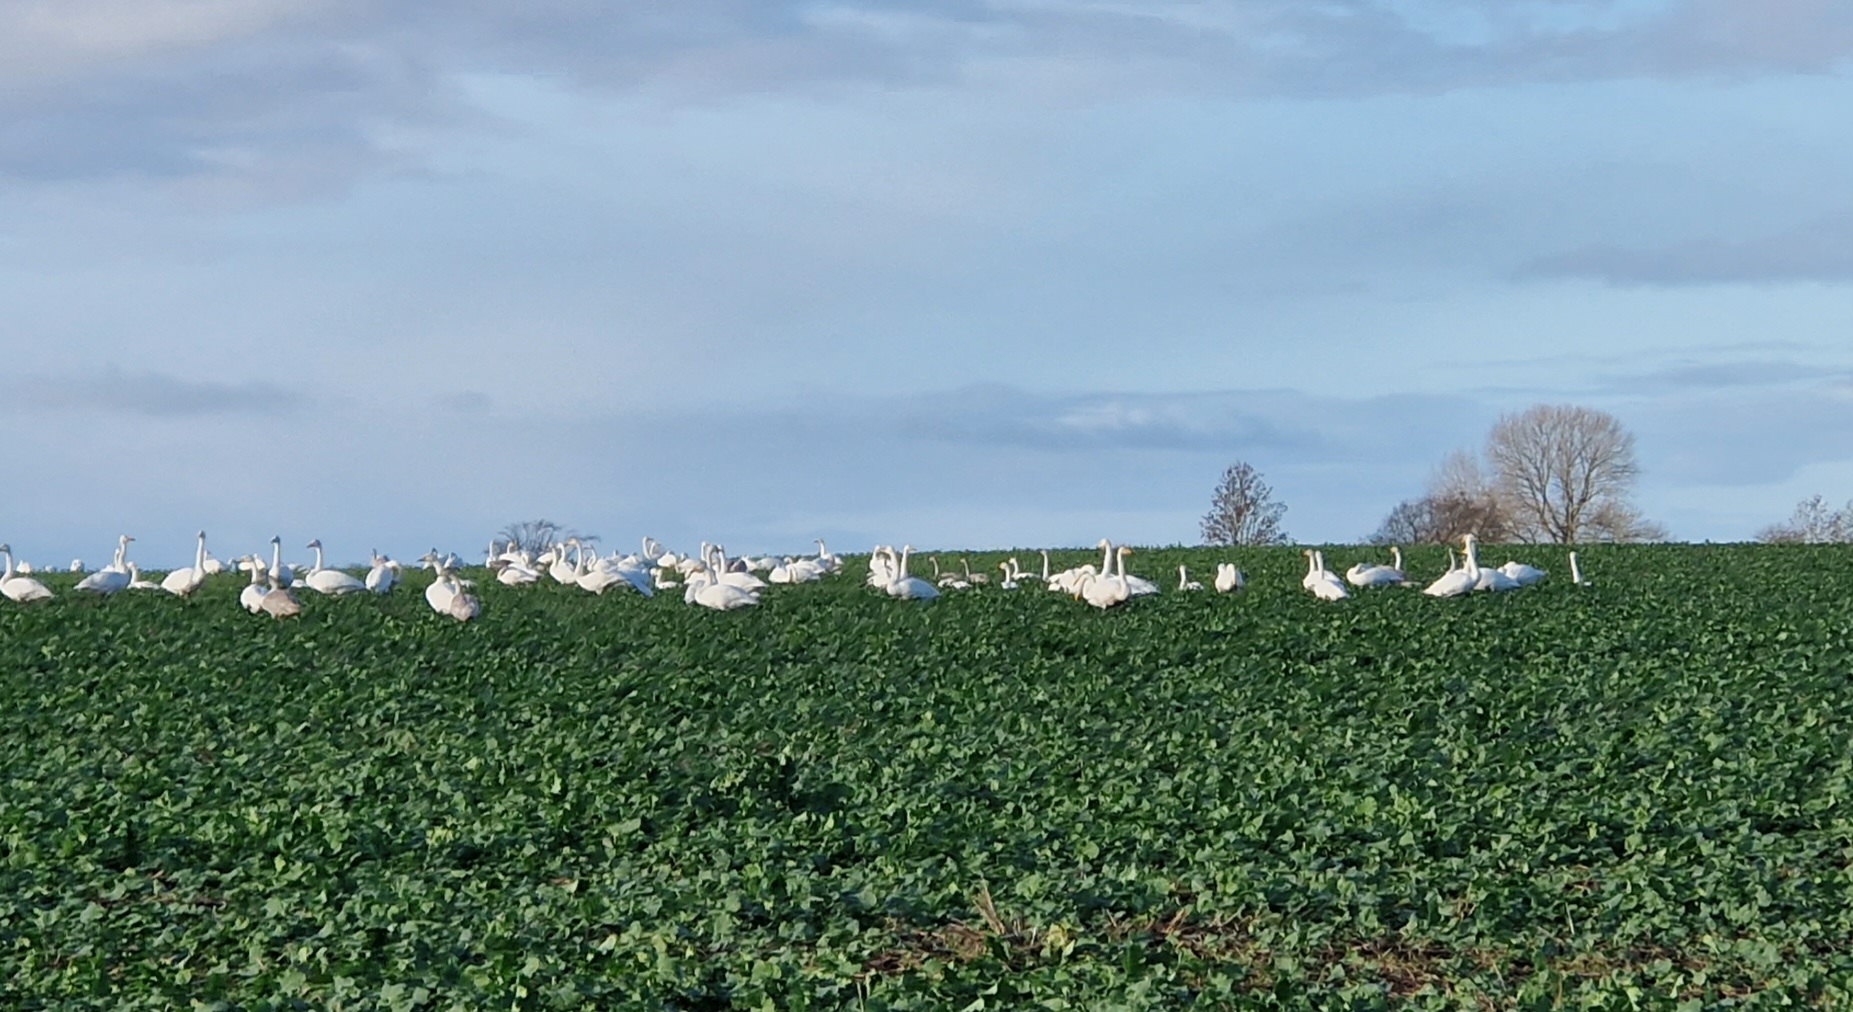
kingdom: Animalia
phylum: Chordata
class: Aves
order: Anseriformes
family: Anatidae
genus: Cygnus
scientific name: Cygnus cygnus
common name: Sangsvane
